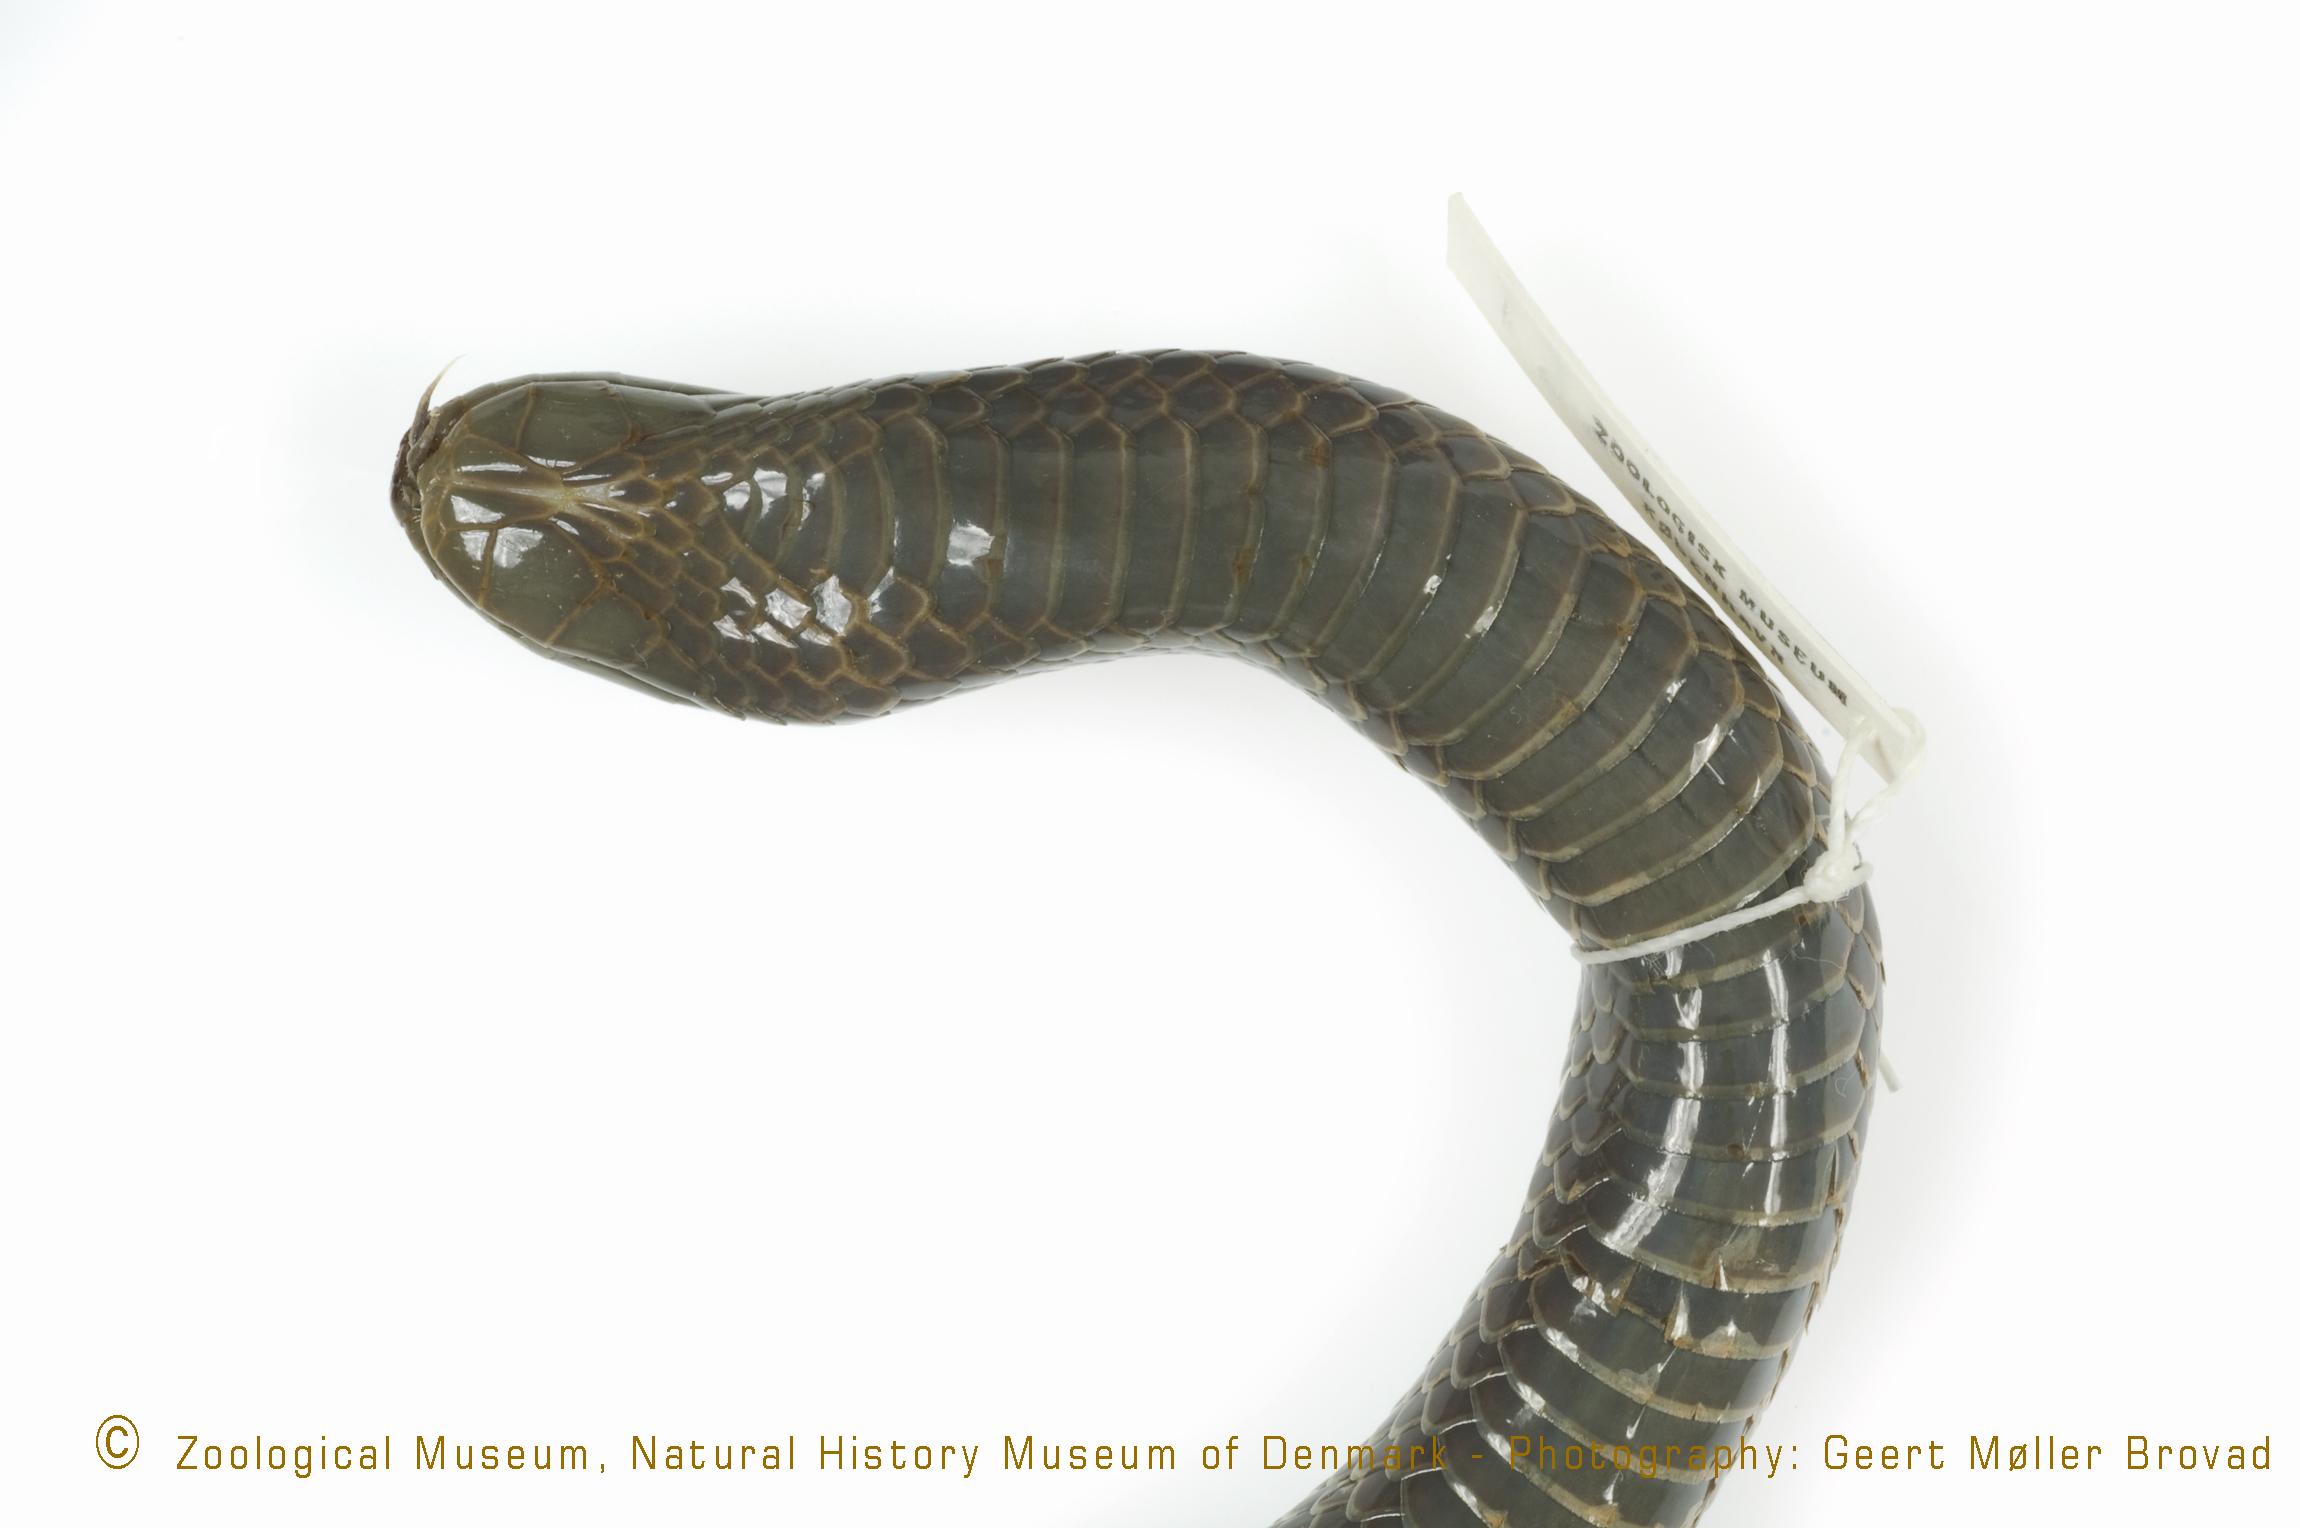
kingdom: Animalia
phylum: Chordata
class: Squamata
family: Atractaspididae
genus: Amblyodipsas
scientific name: Amblyodipsas
